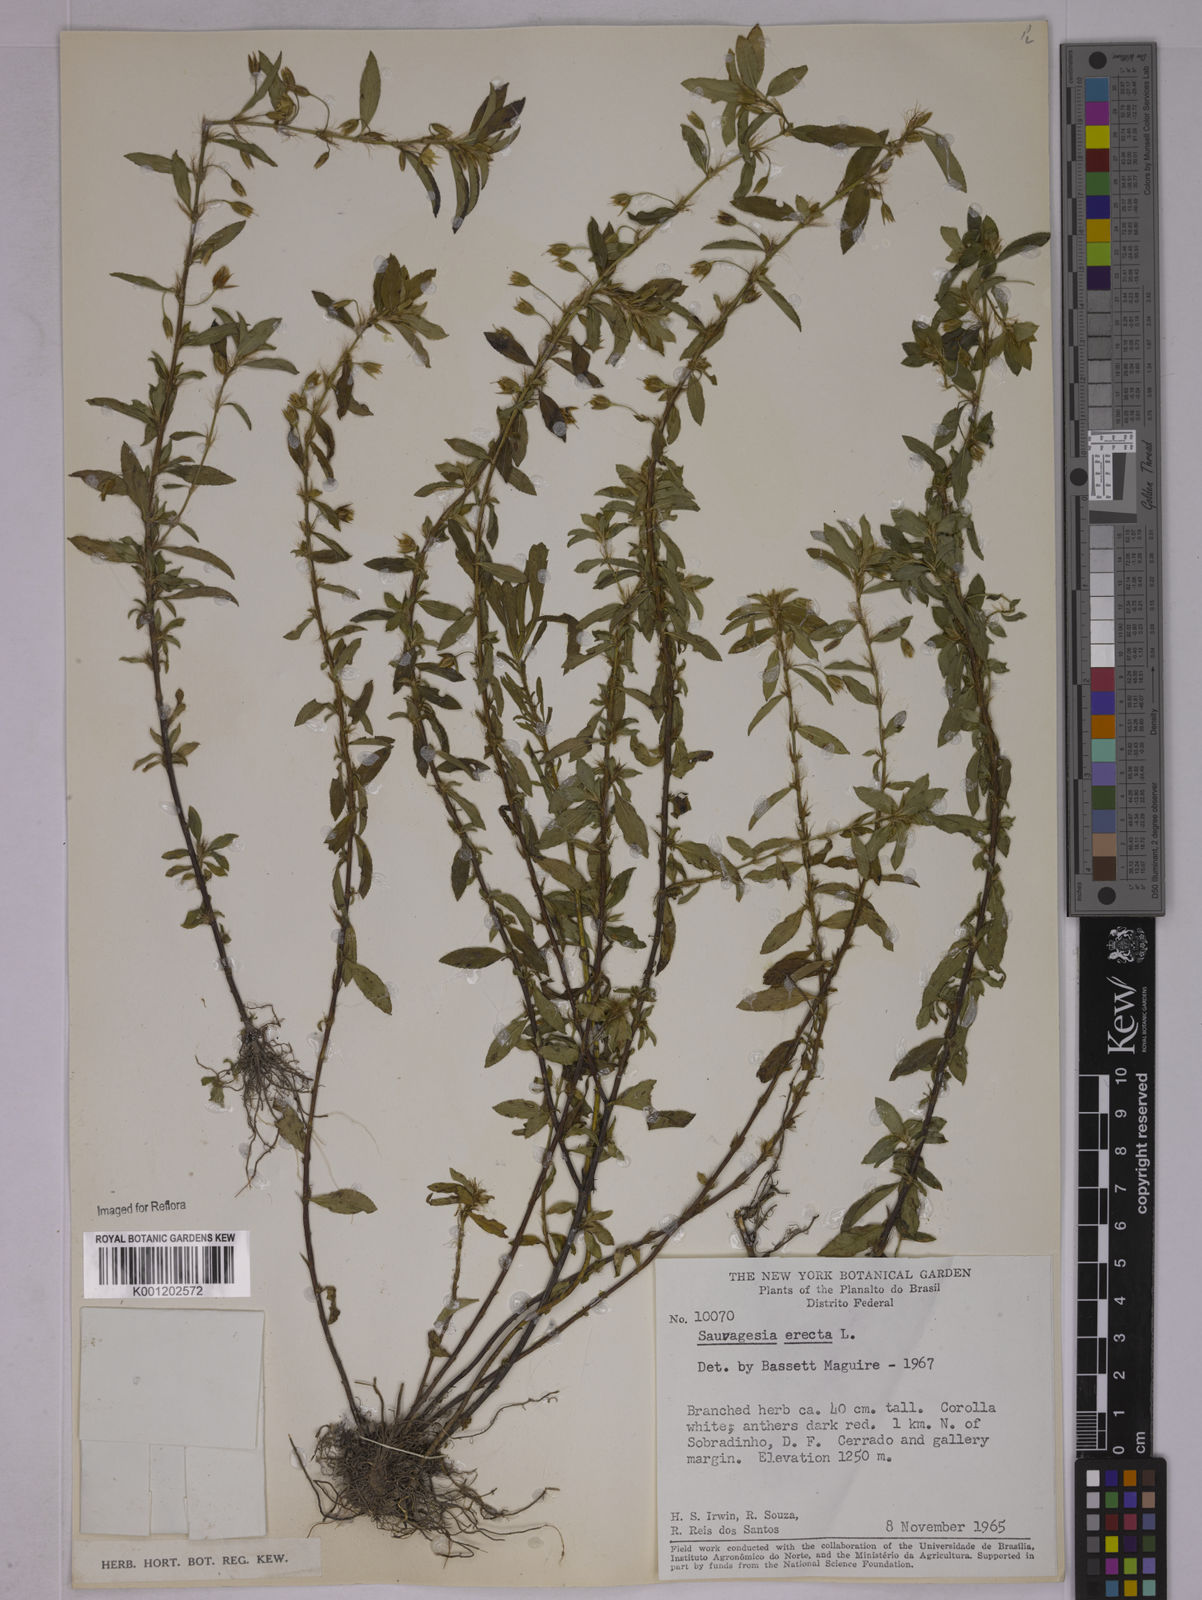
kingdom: Plantae
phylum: Tracheophyta
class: Magnoliopsida
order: Malpighiales
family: Ochnaceae
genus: Sauvagesia
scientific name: Sauvagesia erecta
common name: Creole tea
